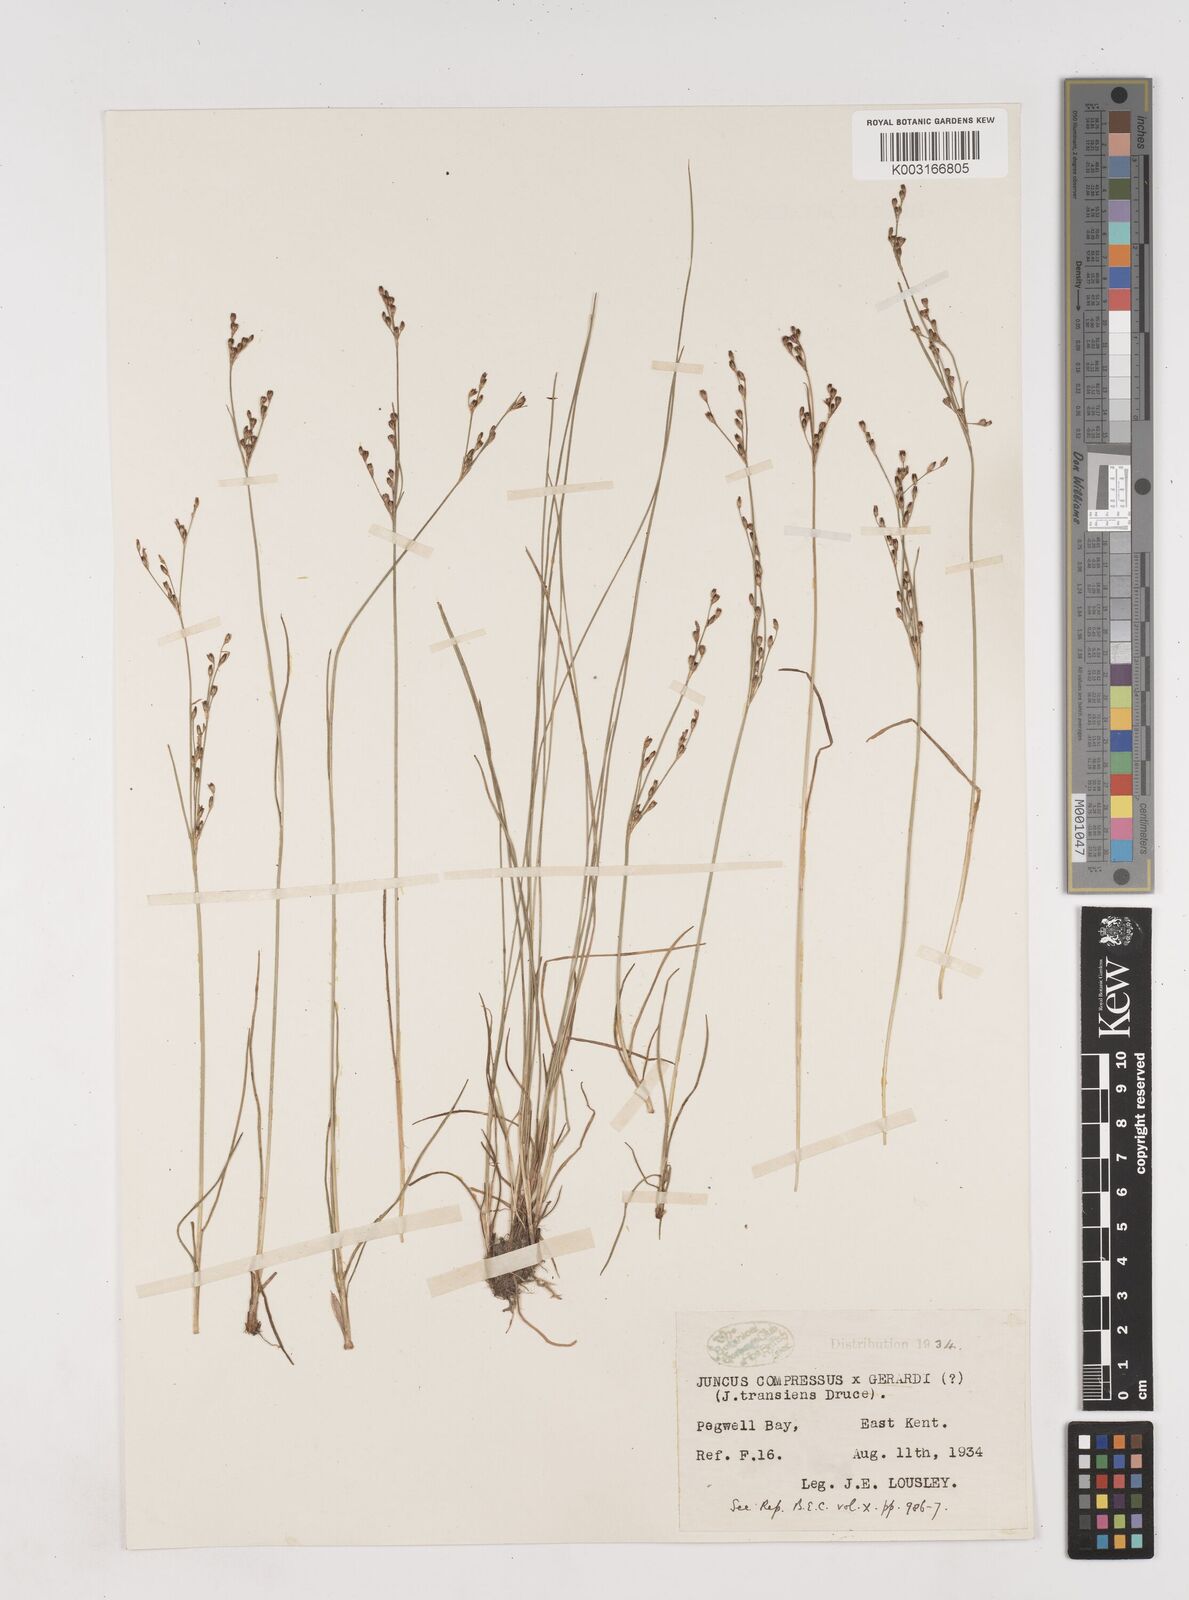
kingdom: Plantae
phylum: Tracheophyta
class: Liliopsida
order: Poales
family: Juncaceae
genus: Juncus
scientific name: Juncus compressus
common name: Round-fruited rush
